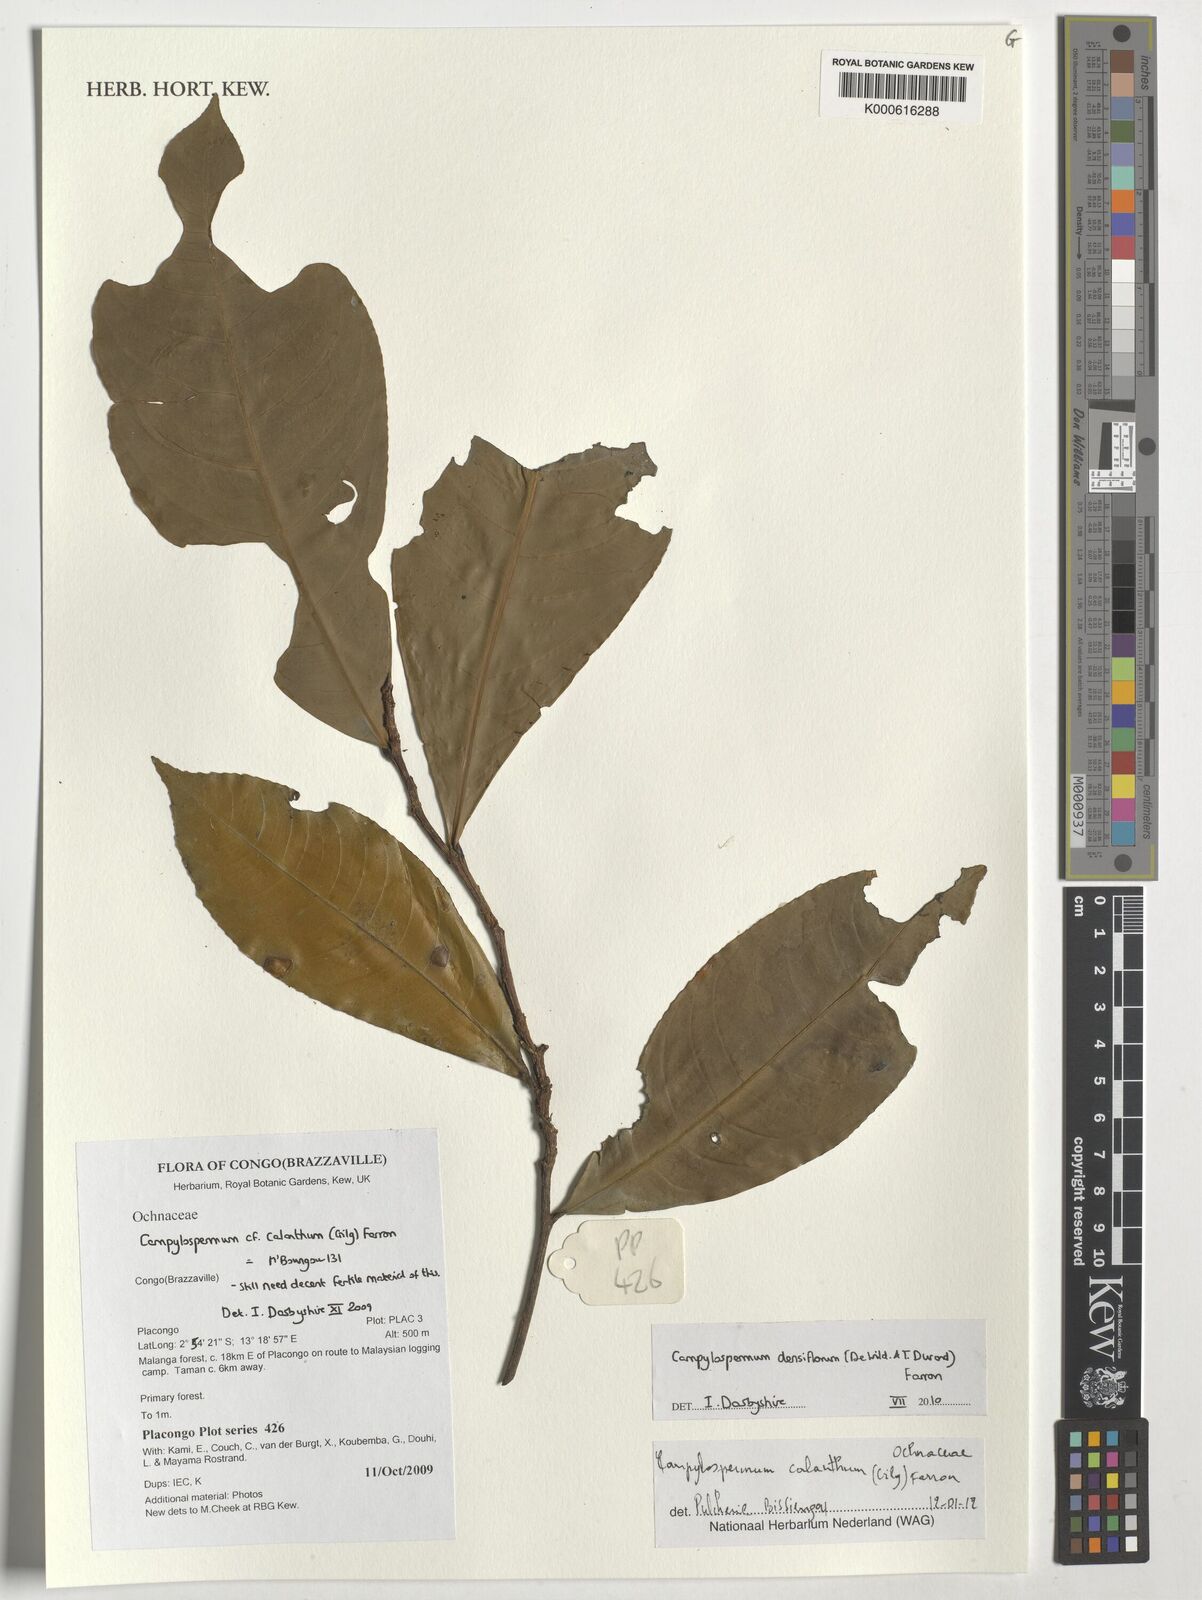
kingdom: Plantae
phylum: Tracheophyta
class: Magnoliopsida
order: Malpighiales
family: Ochnaceae
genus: Campylospermum
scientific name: Campylospermum calanthum
